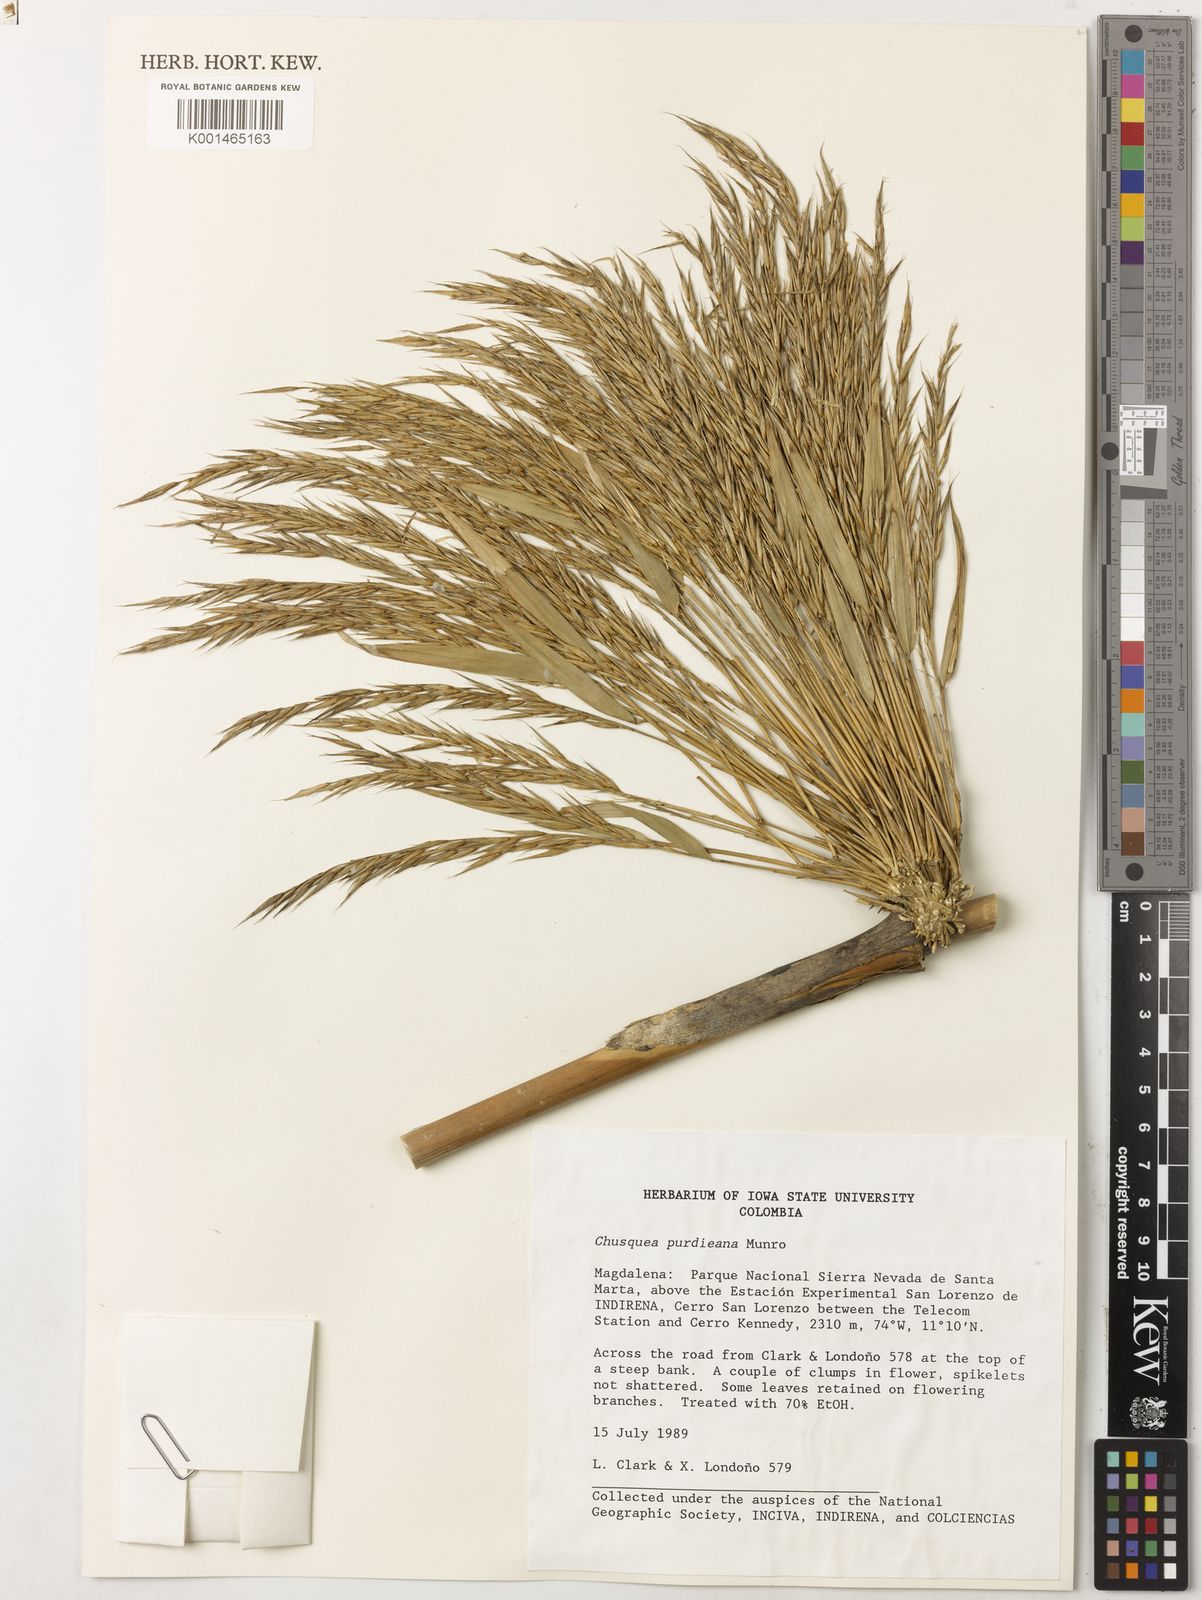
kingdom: Plantae
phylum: Tracheophyta
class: Liliopsida
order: Poales
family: Poaceae
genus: Chusquea
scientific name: Chusquea purdieana
